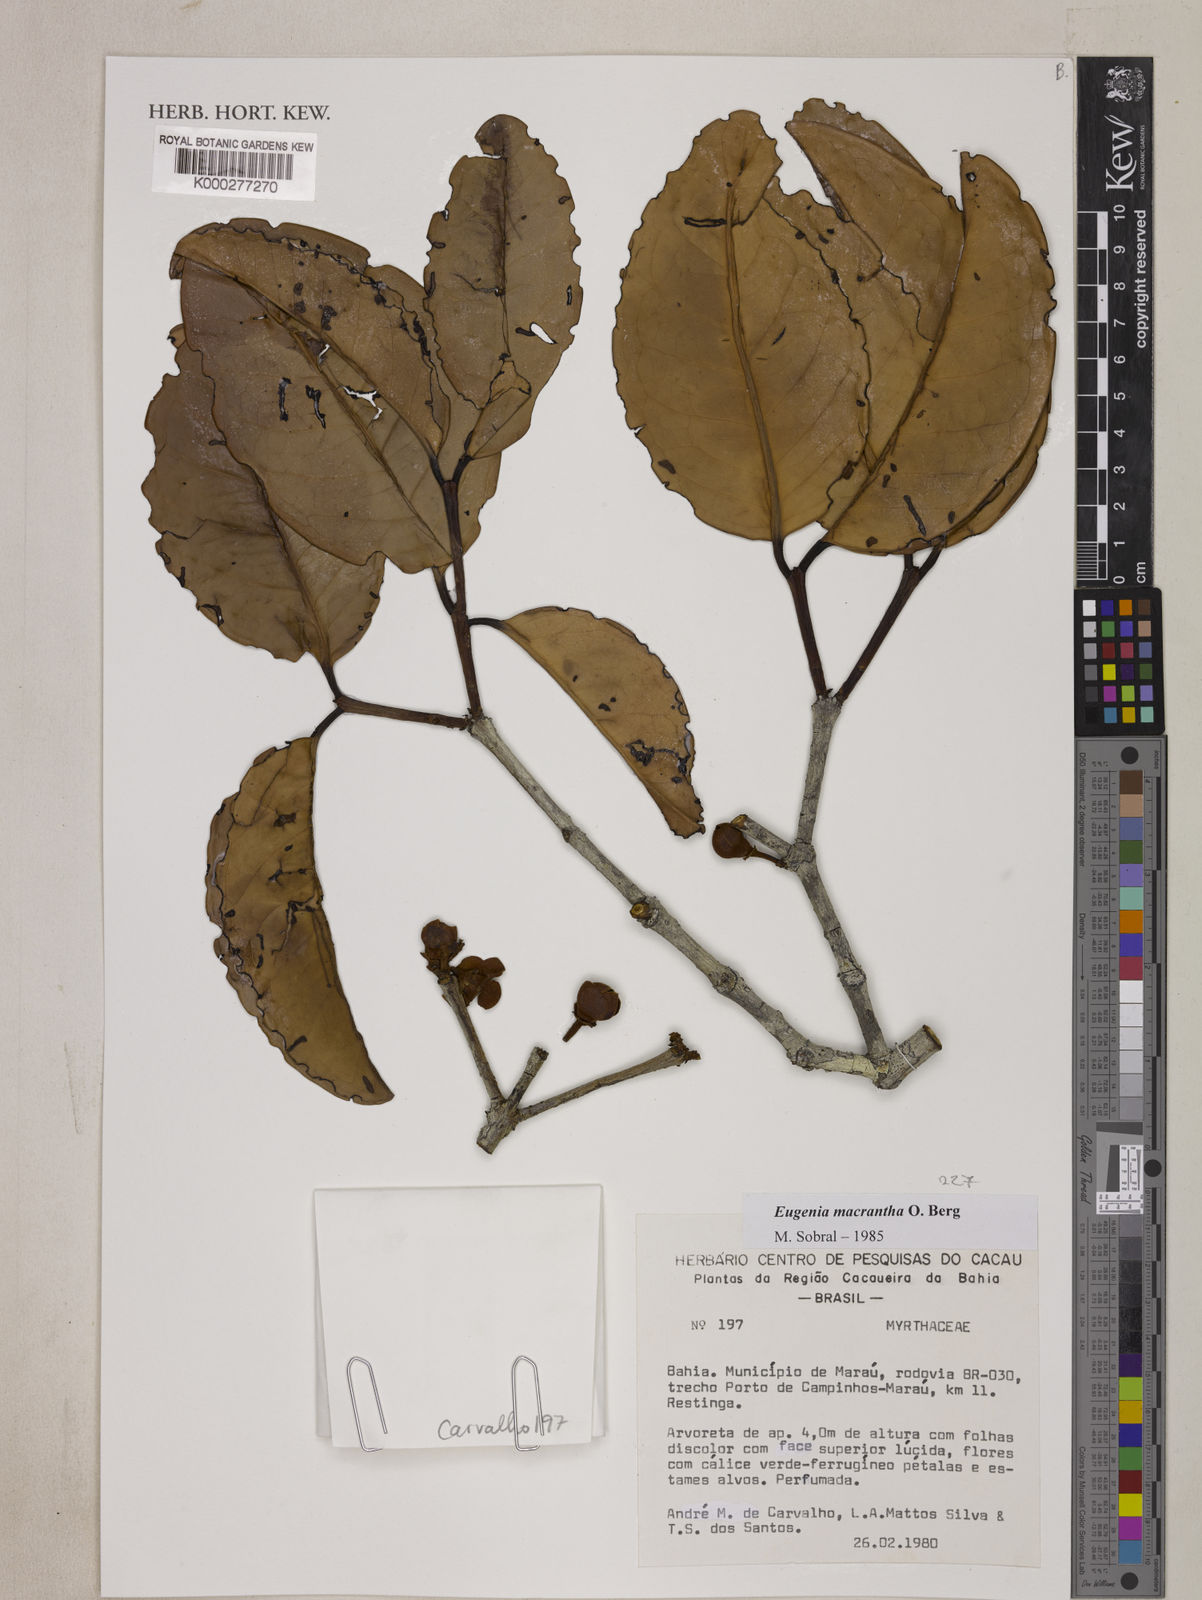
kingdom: Plantae
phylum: Tracheophyta
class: Magnoliopsida
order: Myrtales
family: Myrtaceae
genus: Eugenia
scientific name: Eugenia macrantha
